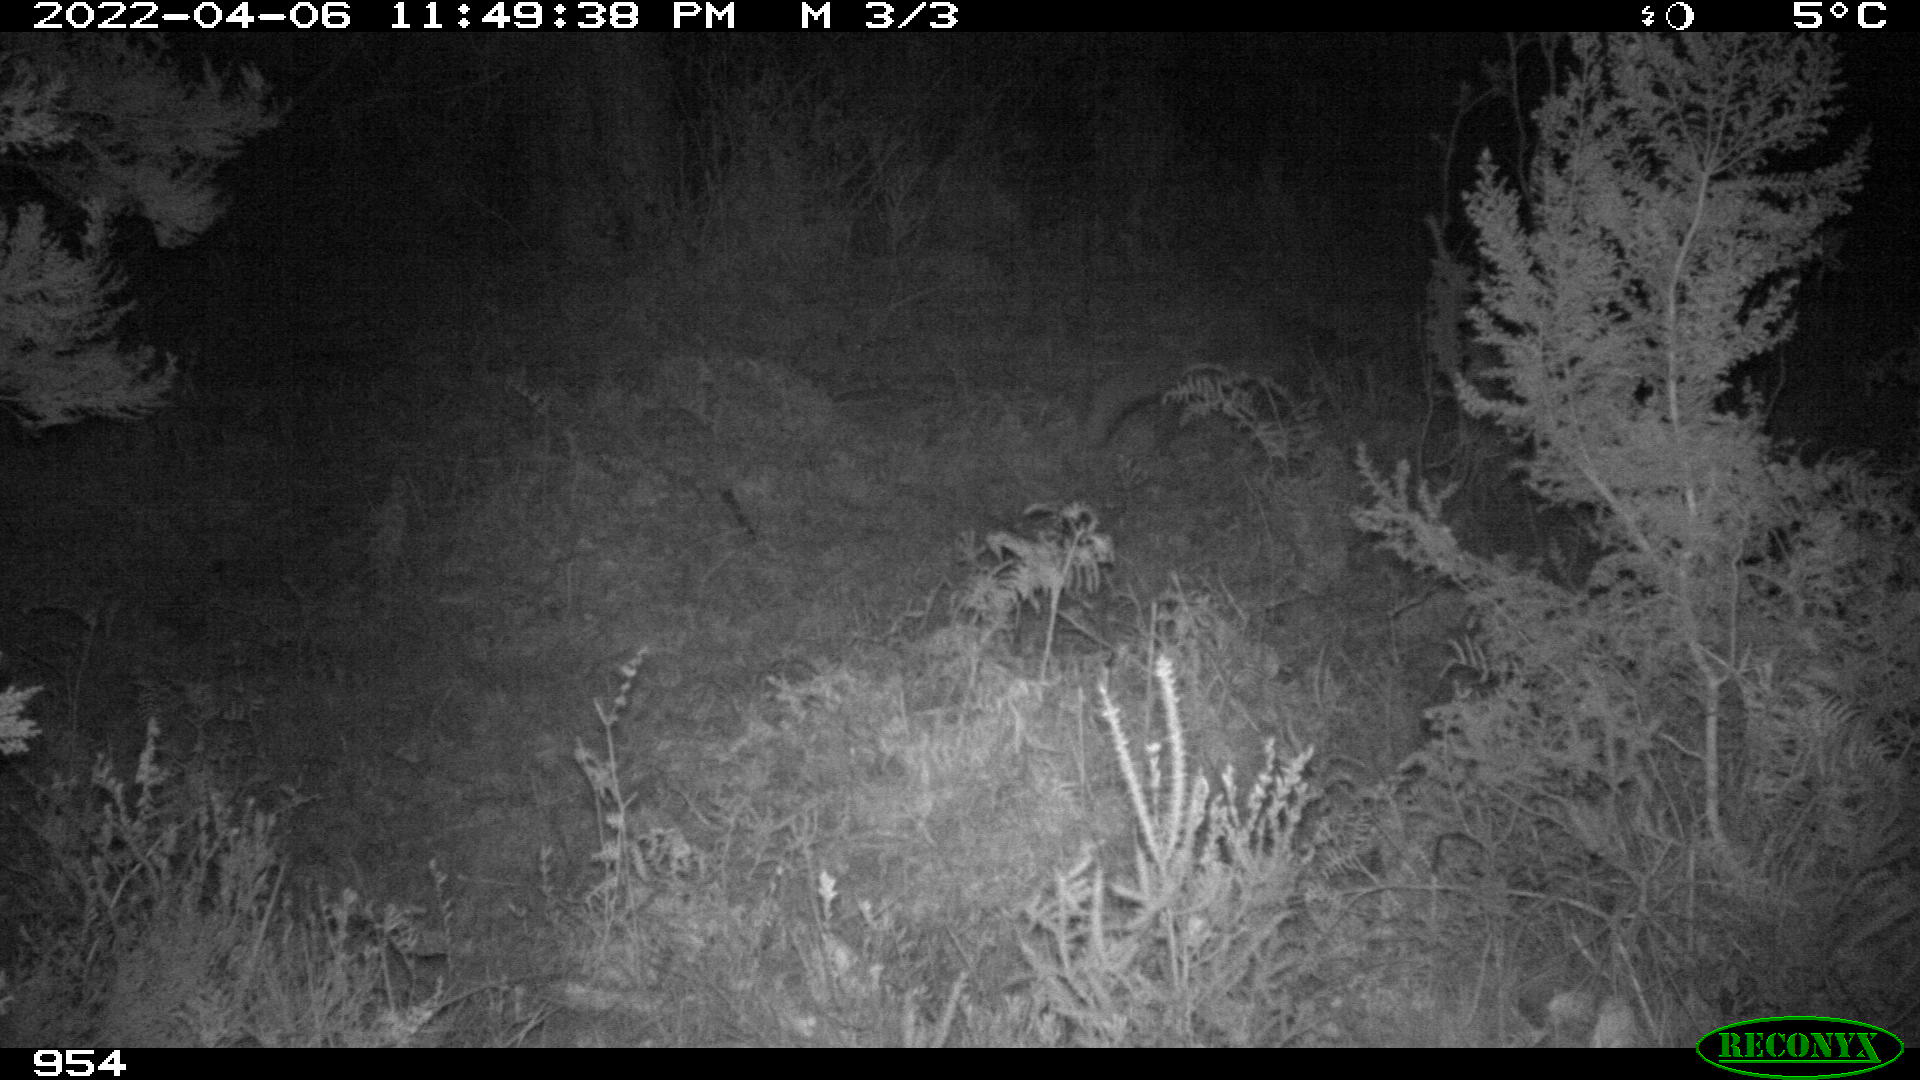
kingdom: Animalia
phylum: Chordata
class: Mammalia
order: Carnivora
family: Canidae
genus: Vulpes
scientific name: Vulpes vulpes
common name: Red fox
